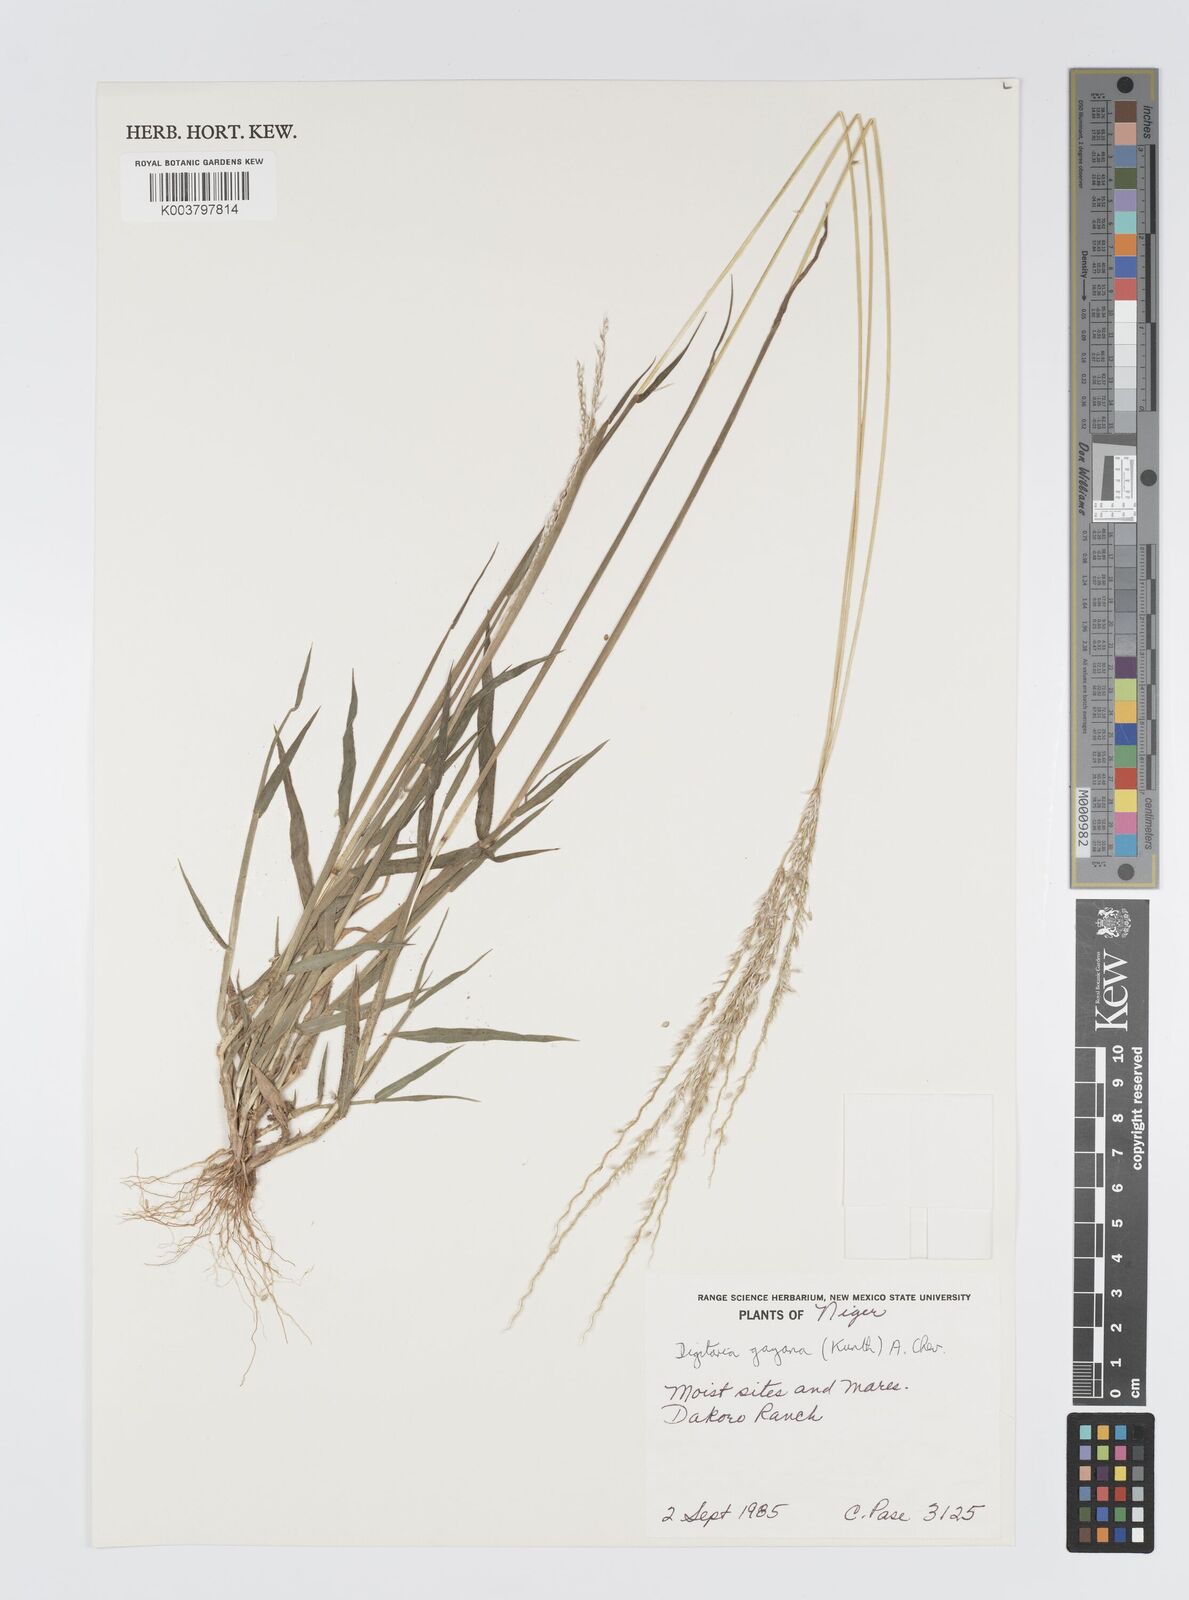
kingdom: Plantae
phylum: Tracheophyta
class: Liliopsida
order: Poales
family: Poaceae
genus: Digitaria
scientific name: Digitaria gayana
